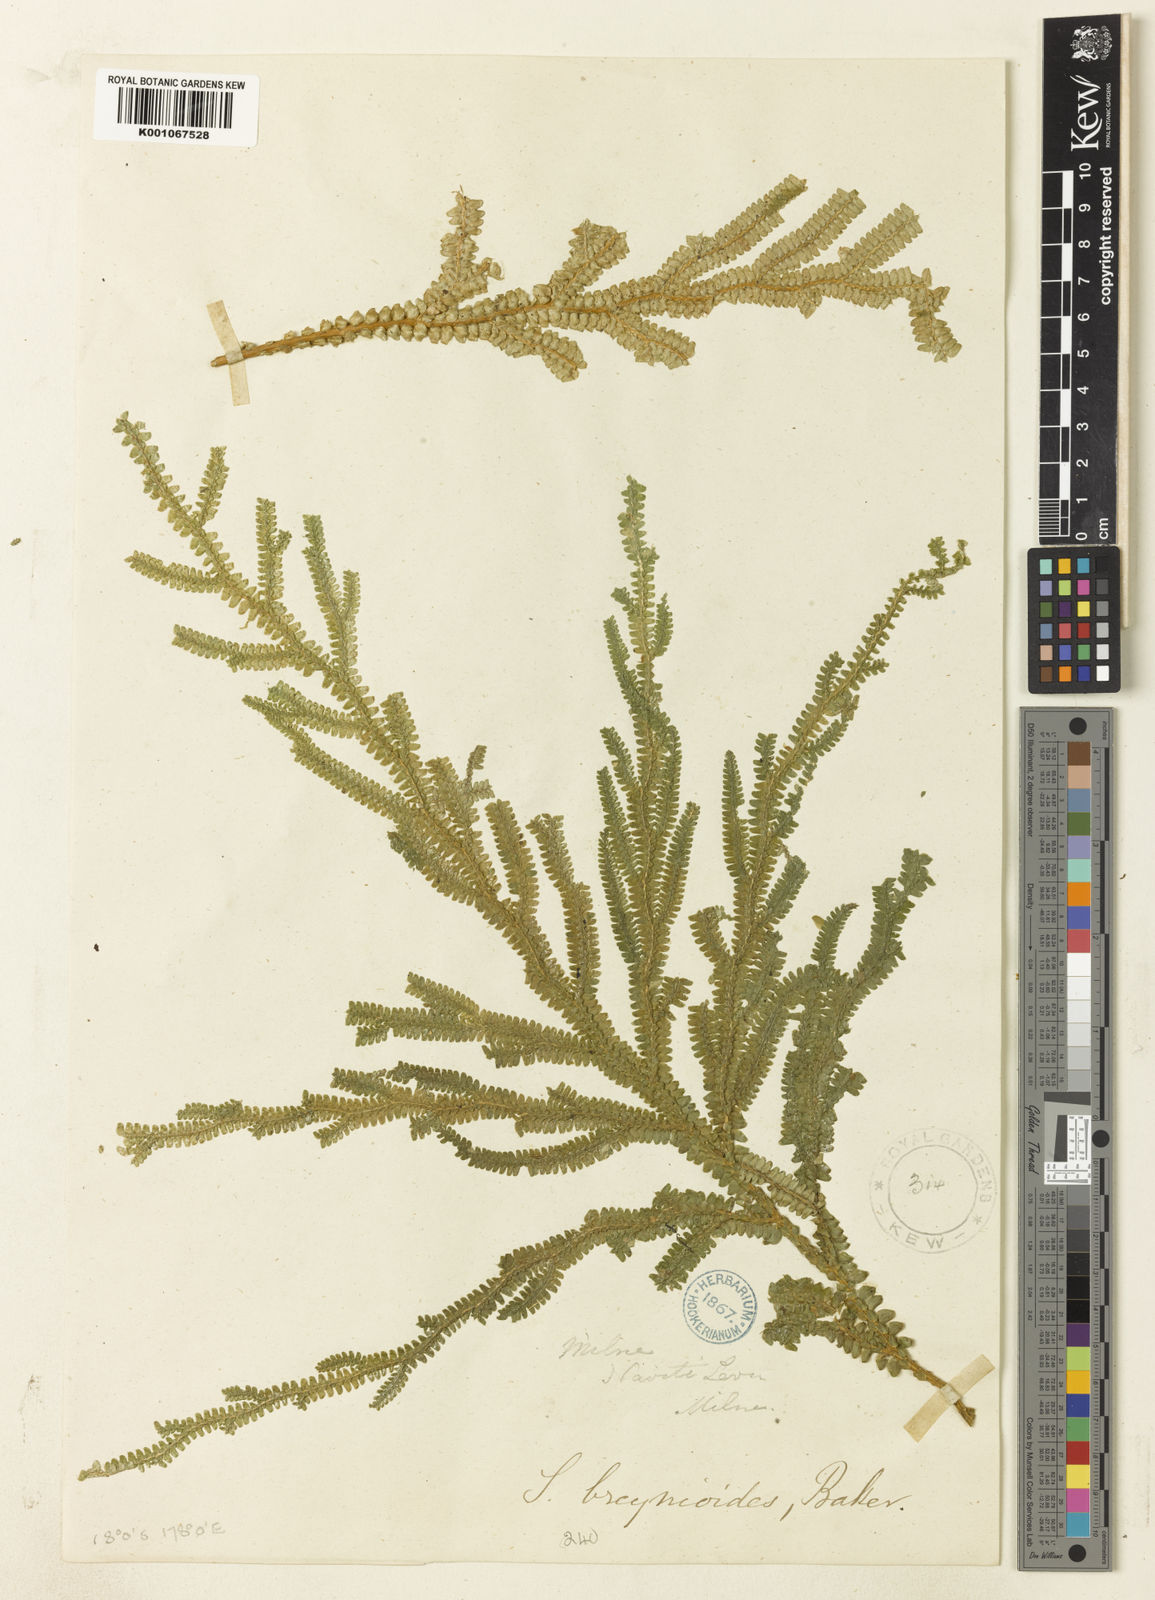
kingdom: Plantae
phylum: Tracheophyta
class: Lycopodiopsida
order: Selaginellales
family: Selaginellaceae
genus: Selaginella
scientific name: Selaginella breynioides
